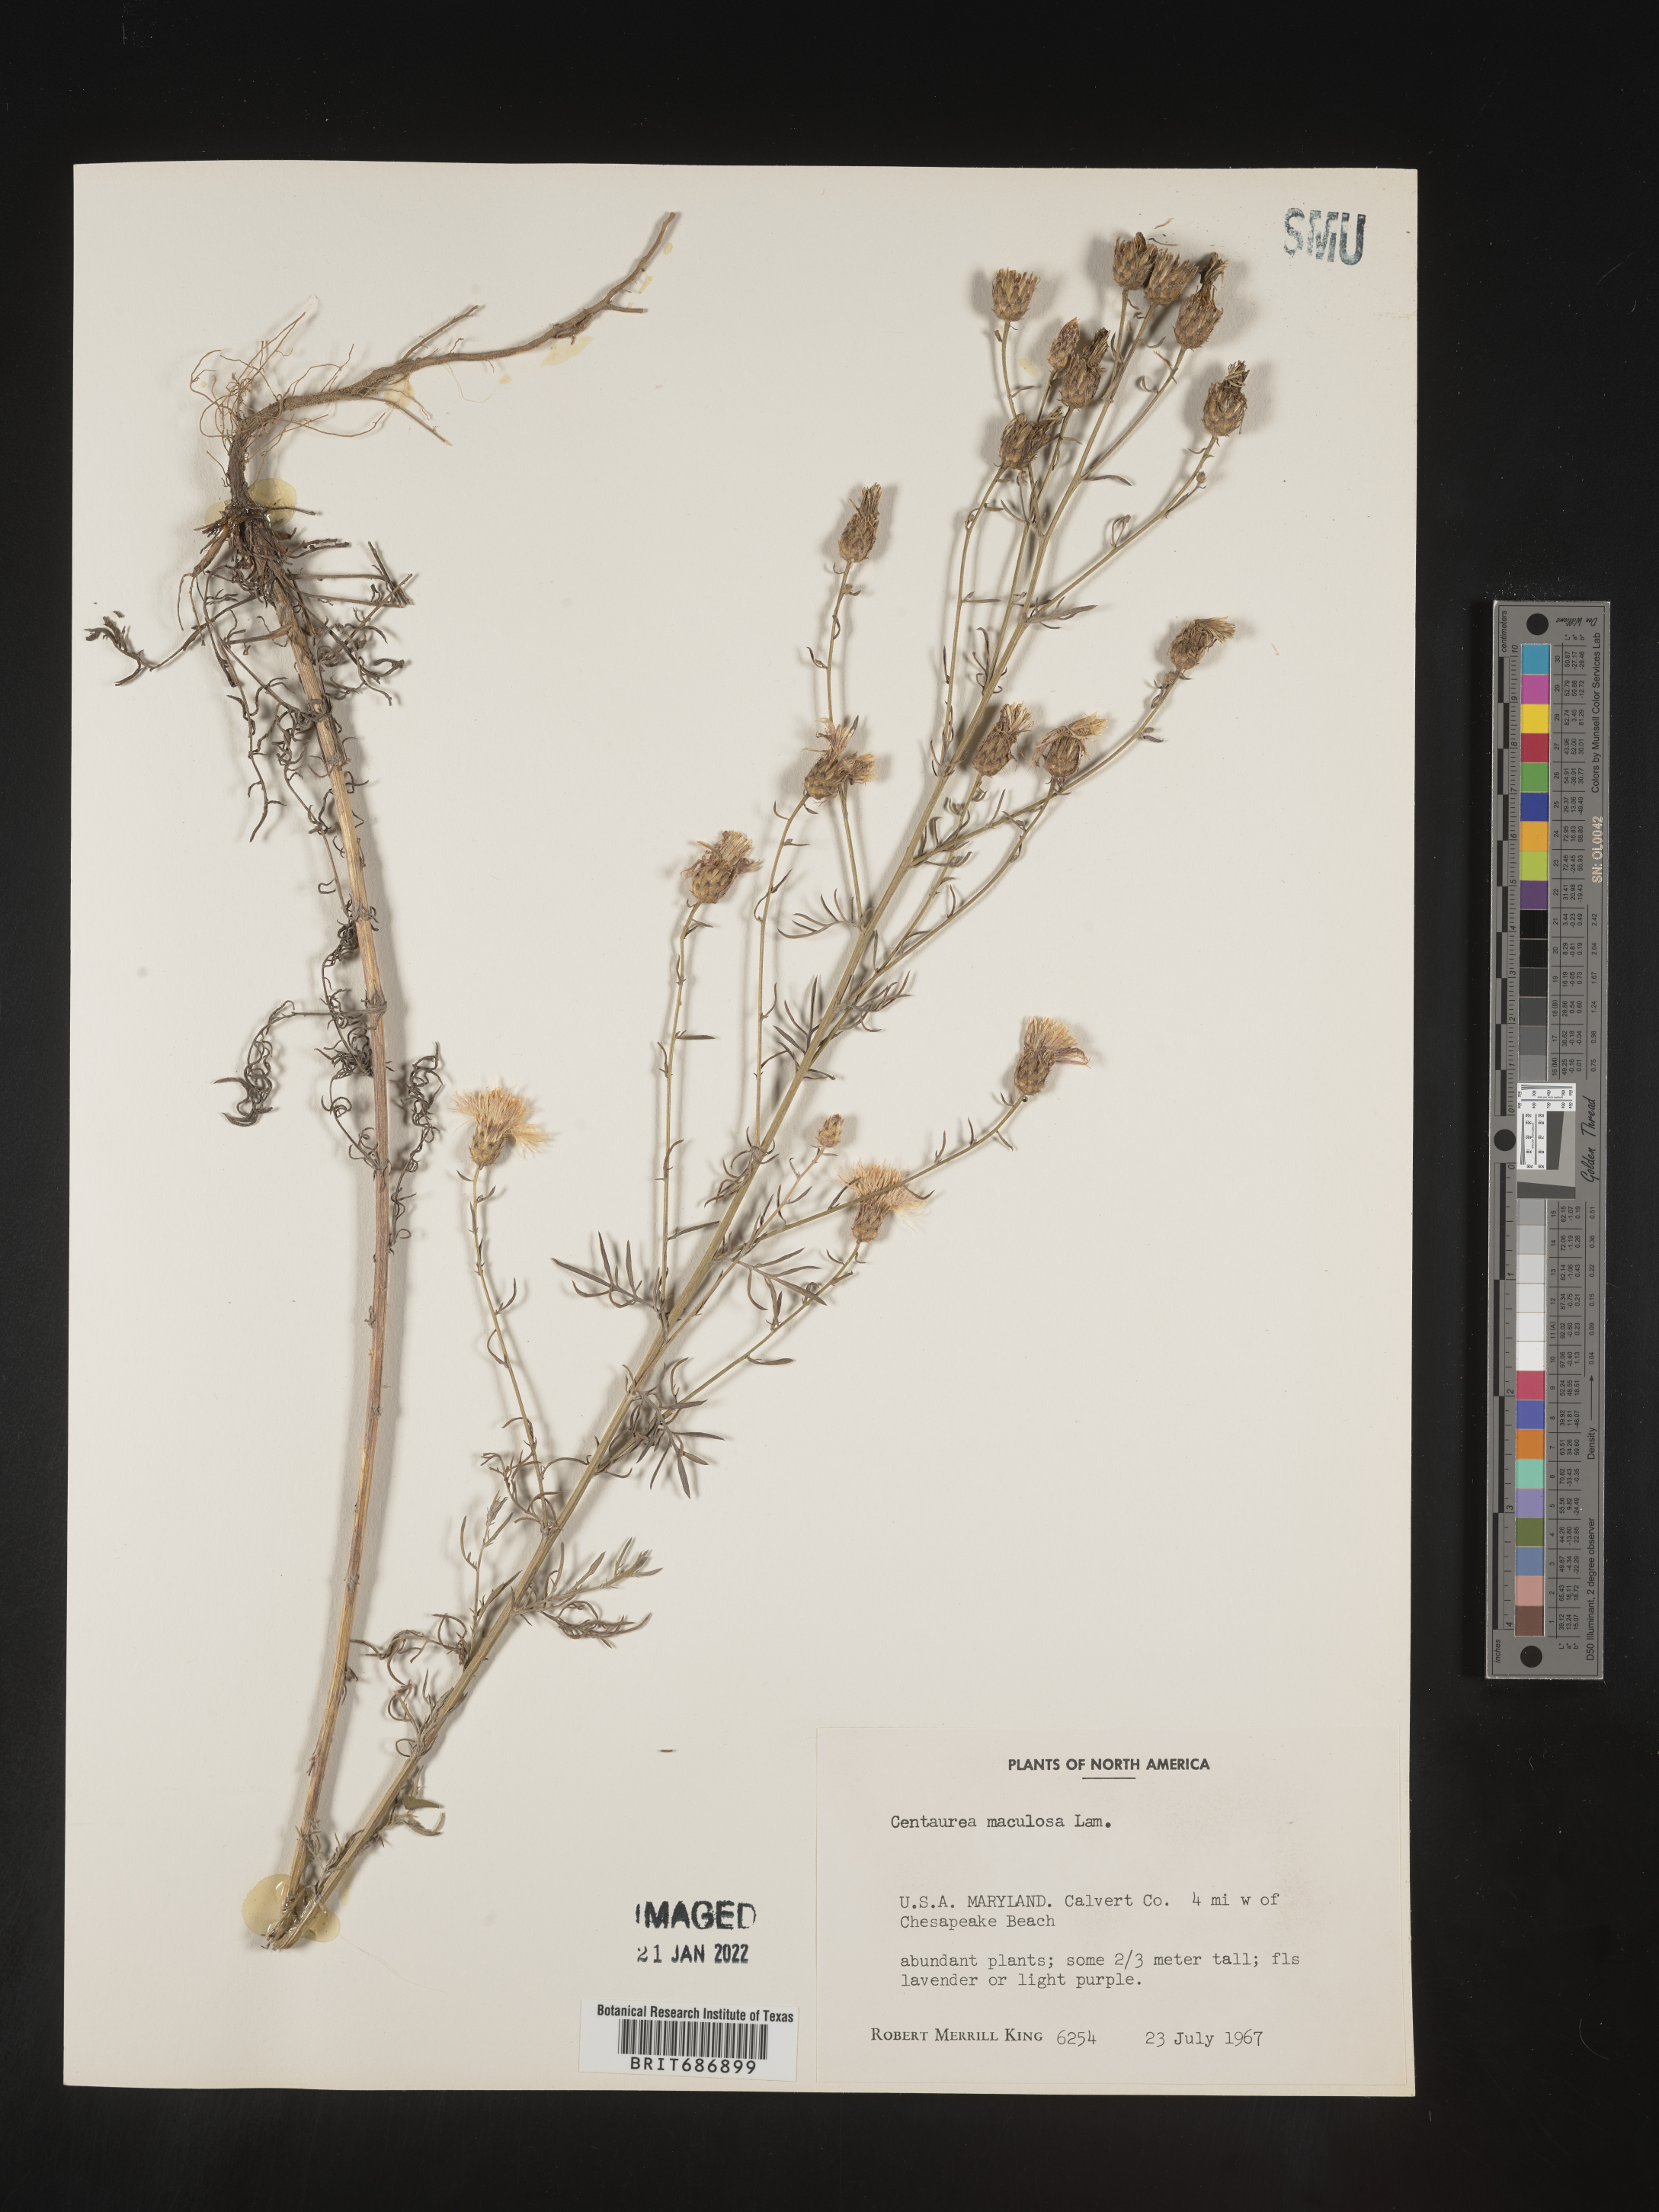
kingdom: Plantae
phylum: Tracheophyta
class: Magnoliopsida
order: Asterales
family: Asteraceae
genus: Centaurea
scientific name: Centaurea stoebe
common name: Spotted knapweed
